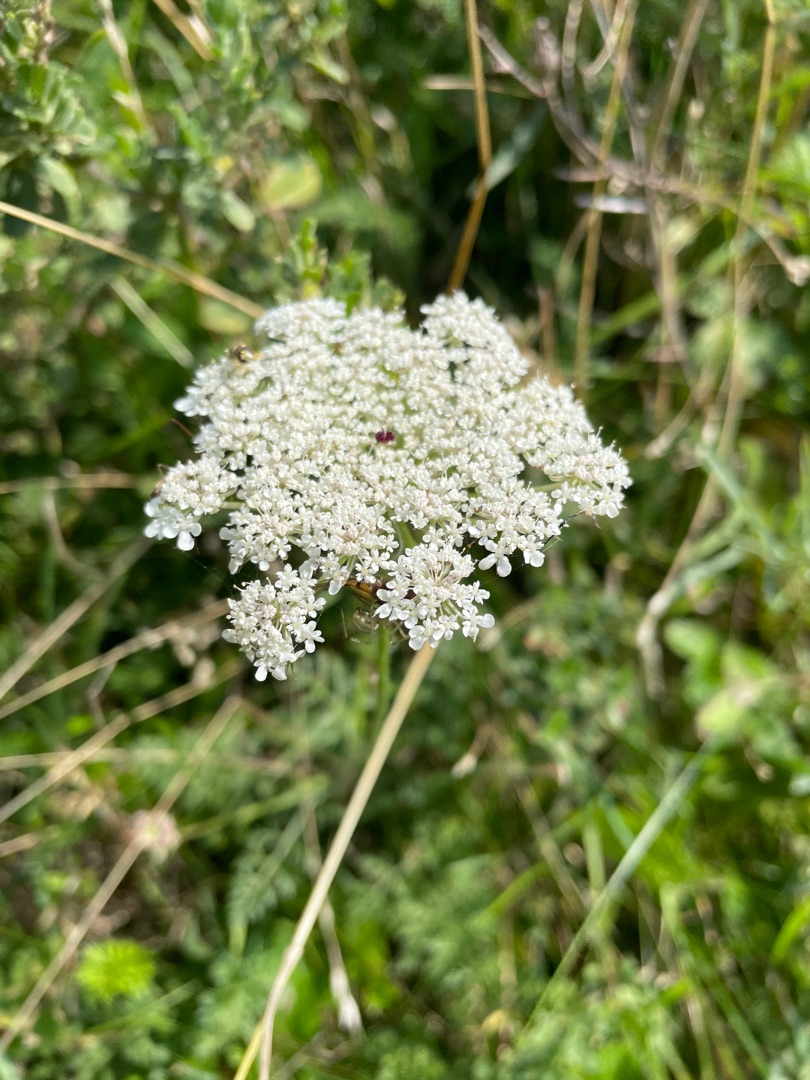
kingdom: Plantae
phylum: Tracheophyta
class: Magnoliopsida
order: Apiales
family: Apiaceae
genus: Daucus
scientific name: Daucus carota
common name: Gulerod
